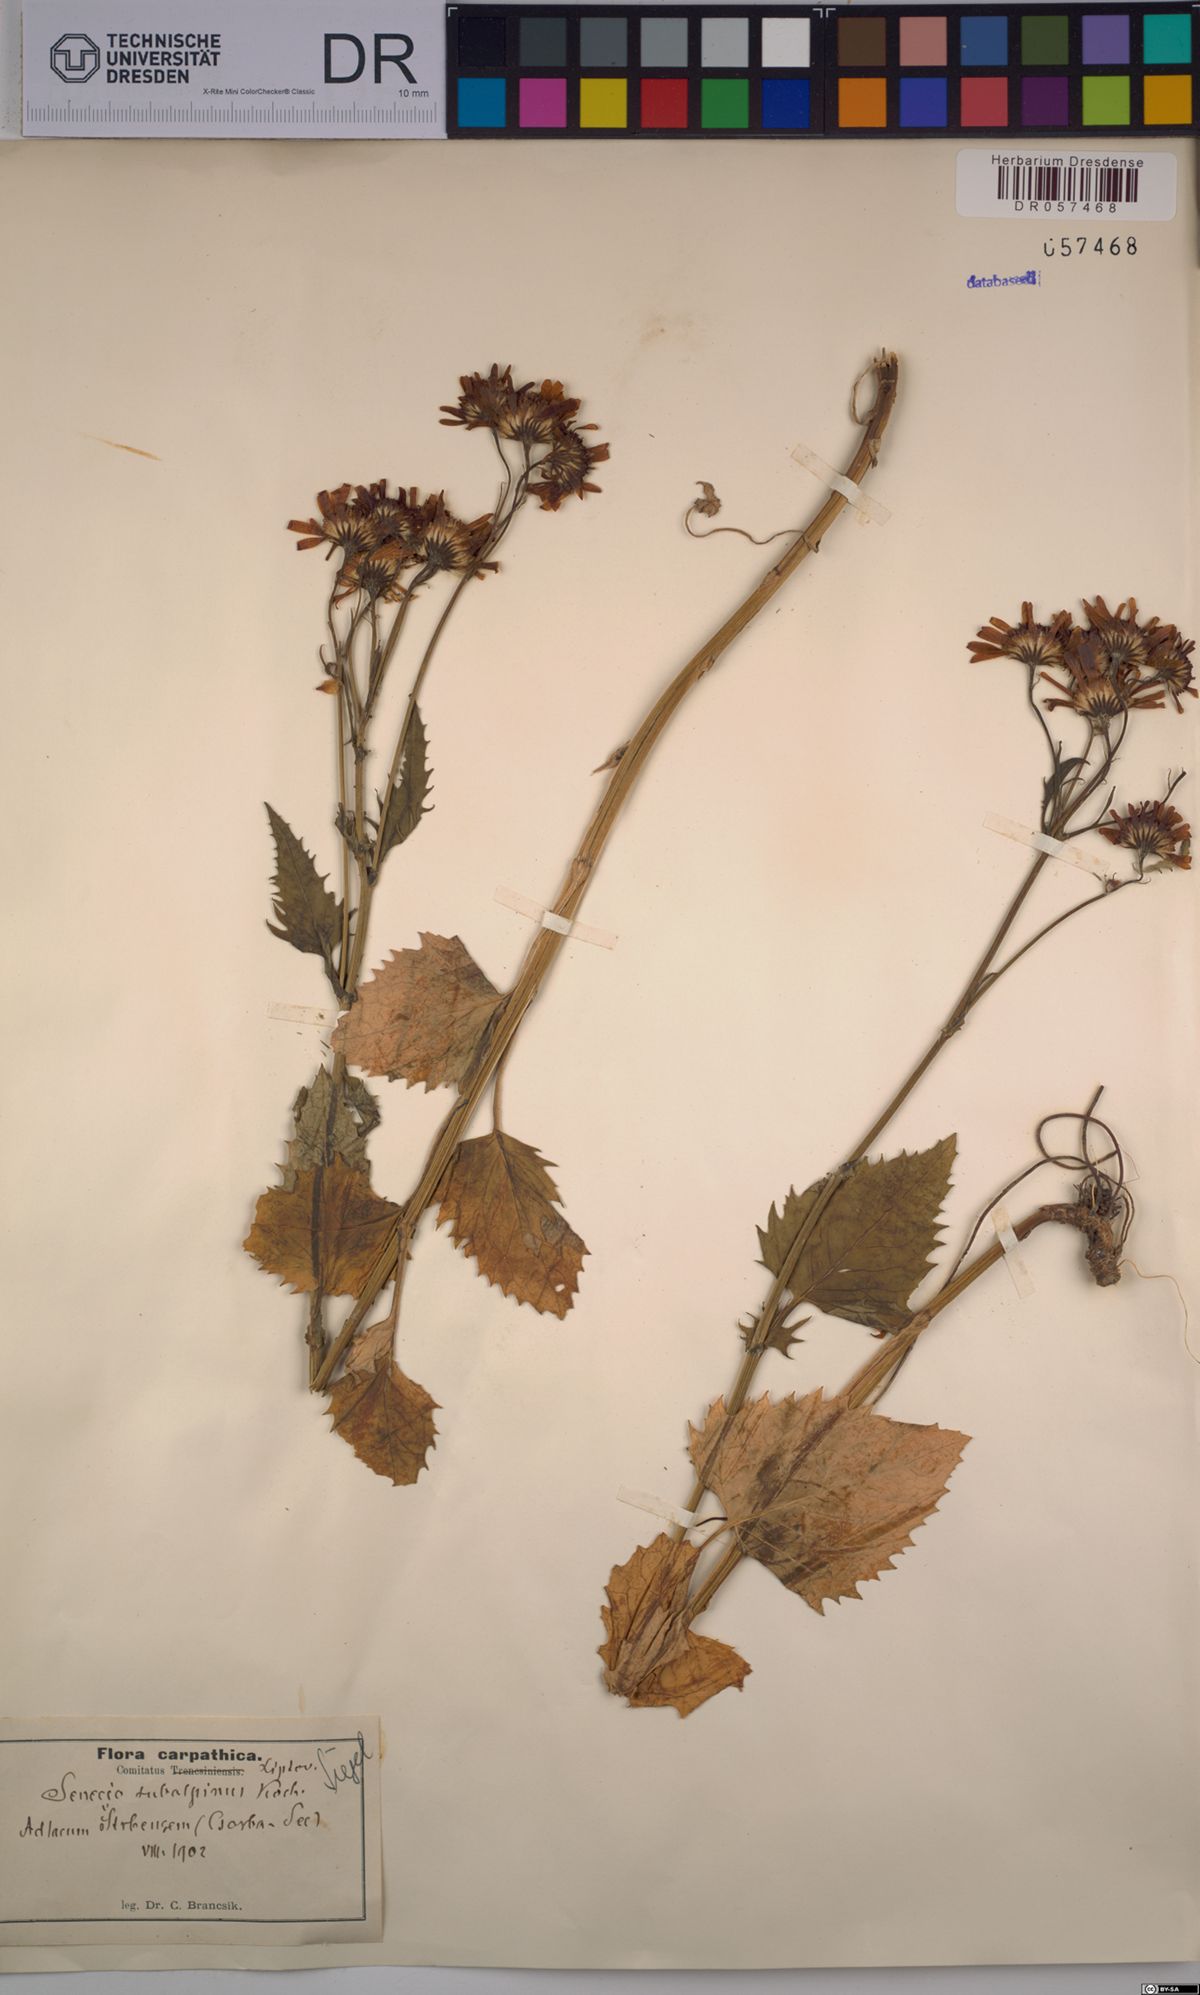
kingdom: Plantae
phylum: Tracheophyta
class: Magnoliopsida
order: Asterales
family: Asteraceae
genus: Jacobaea
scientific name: Jacobaea subalpina
